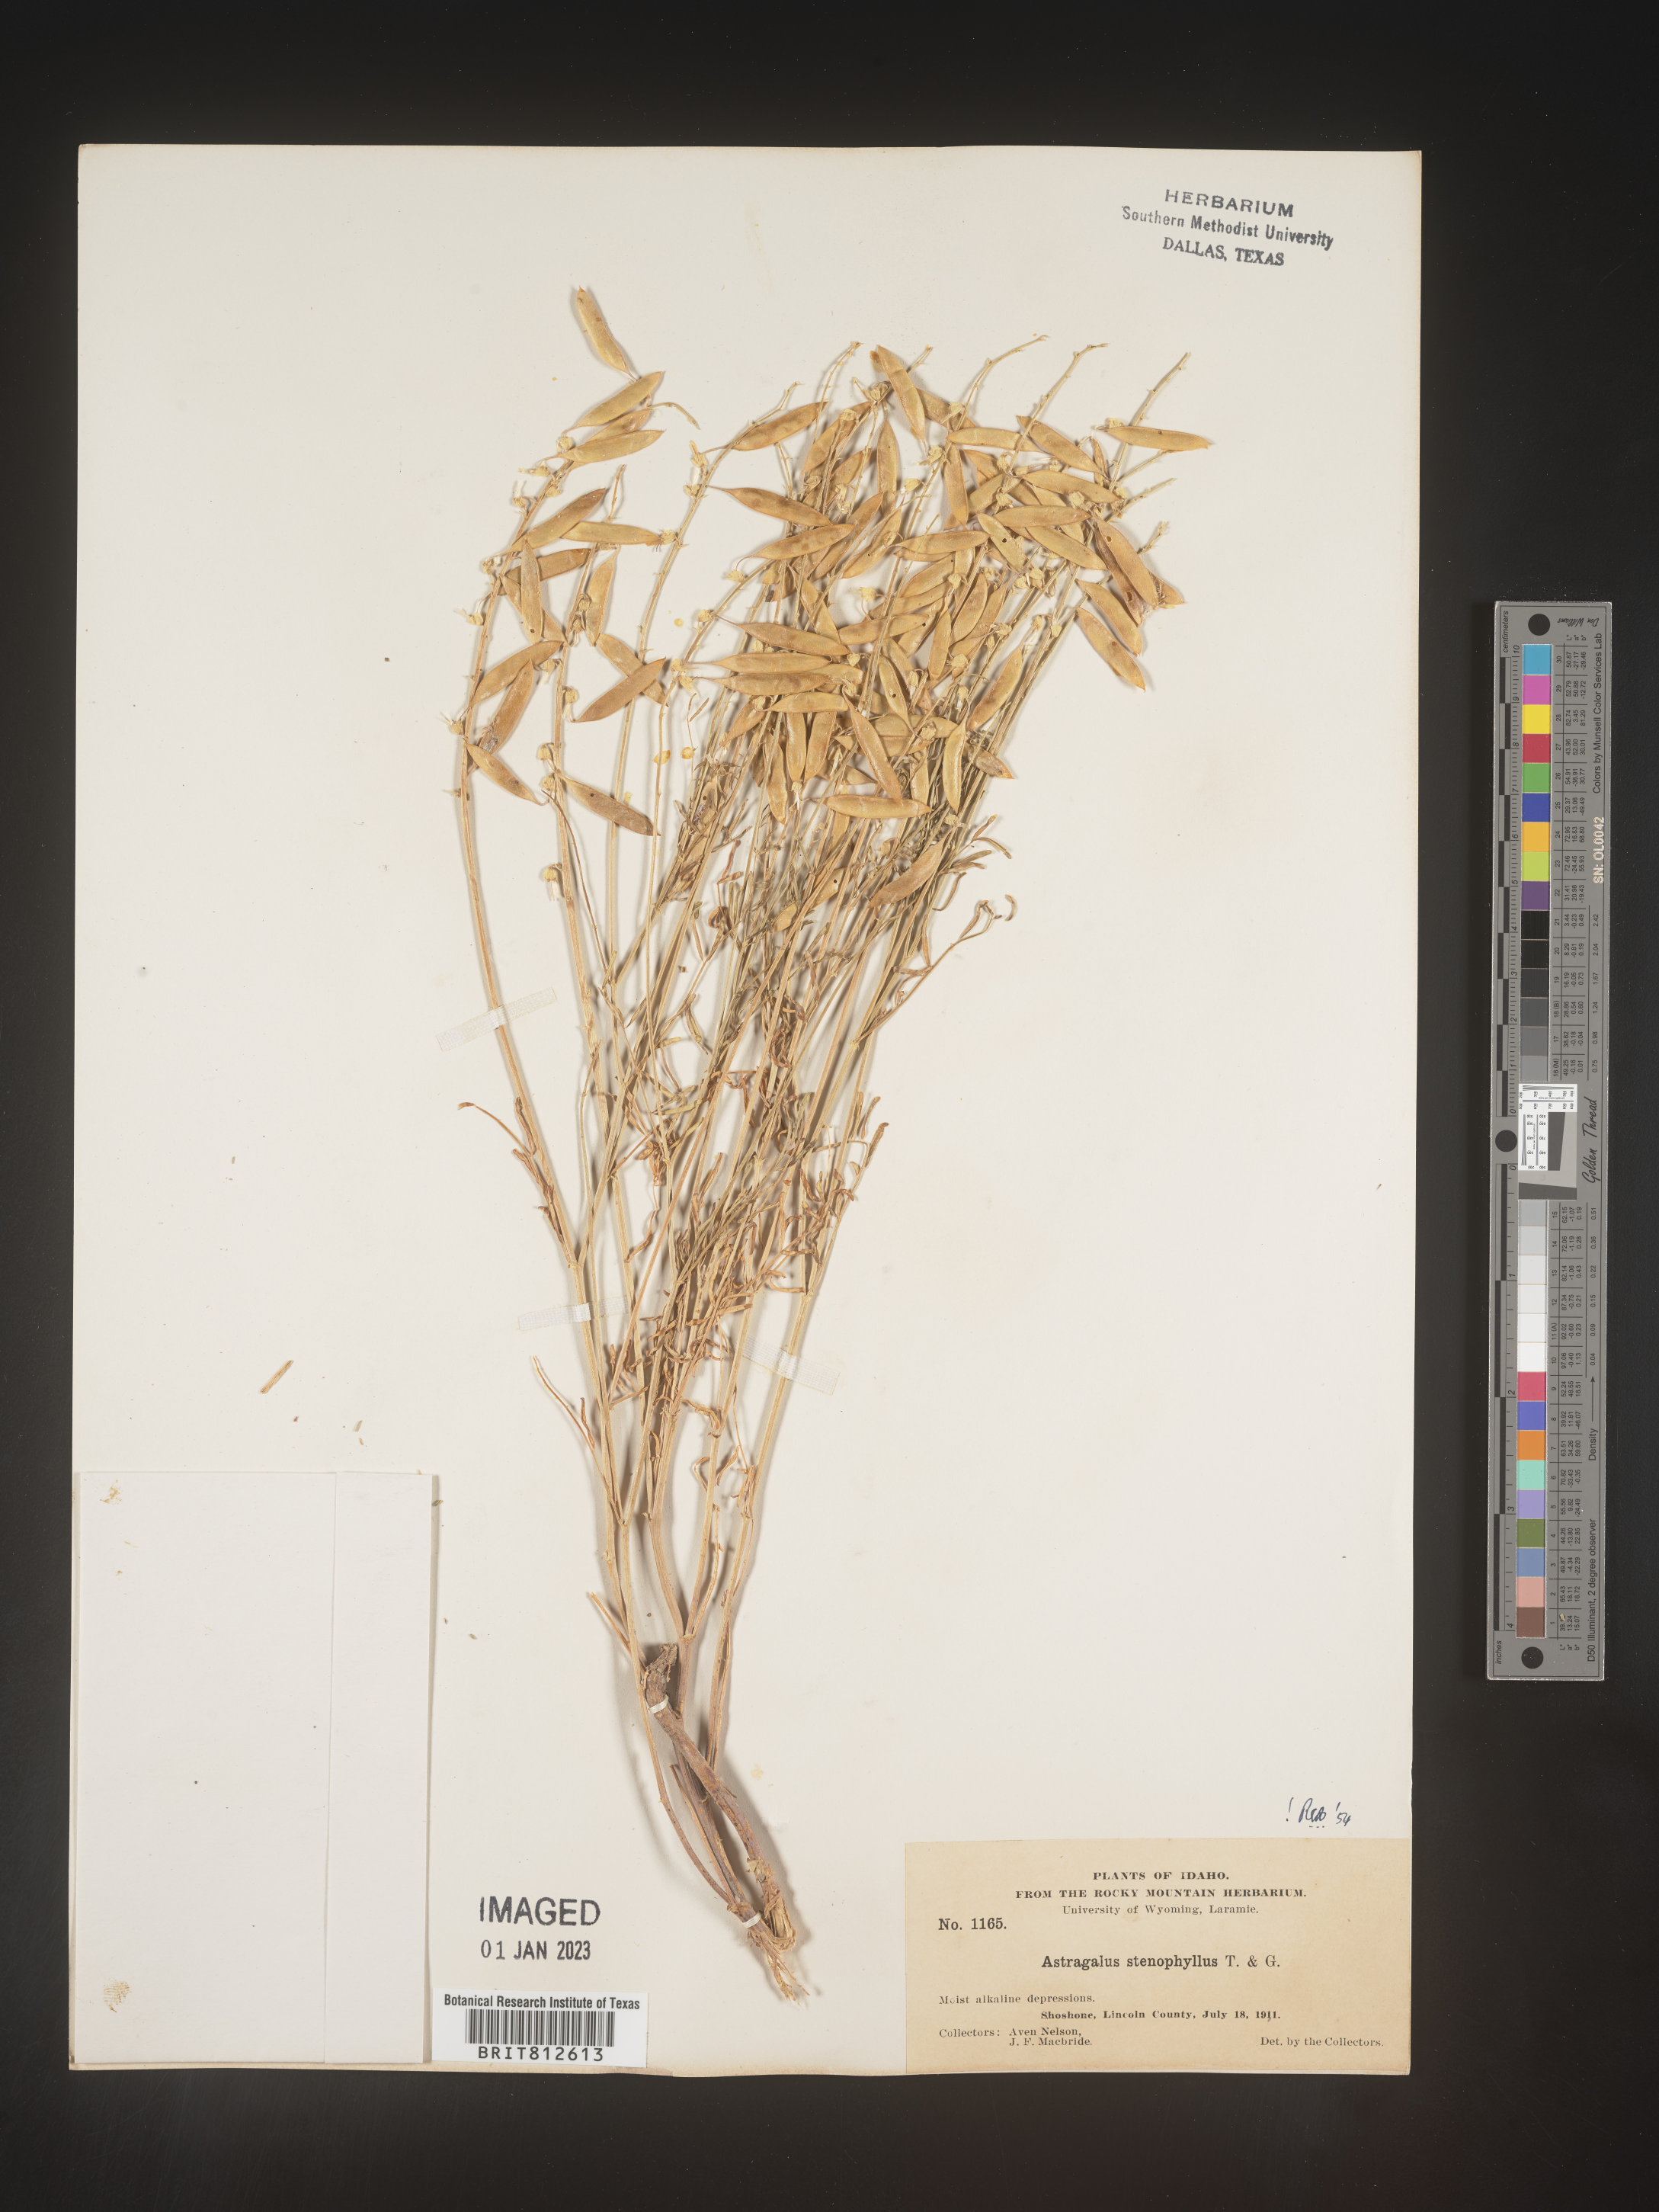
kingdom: Plantae
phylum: Tracheophyta
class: Magnoliopsida
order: Fabales
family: Fabaceae
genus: Astragalus
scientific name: Astragalus
